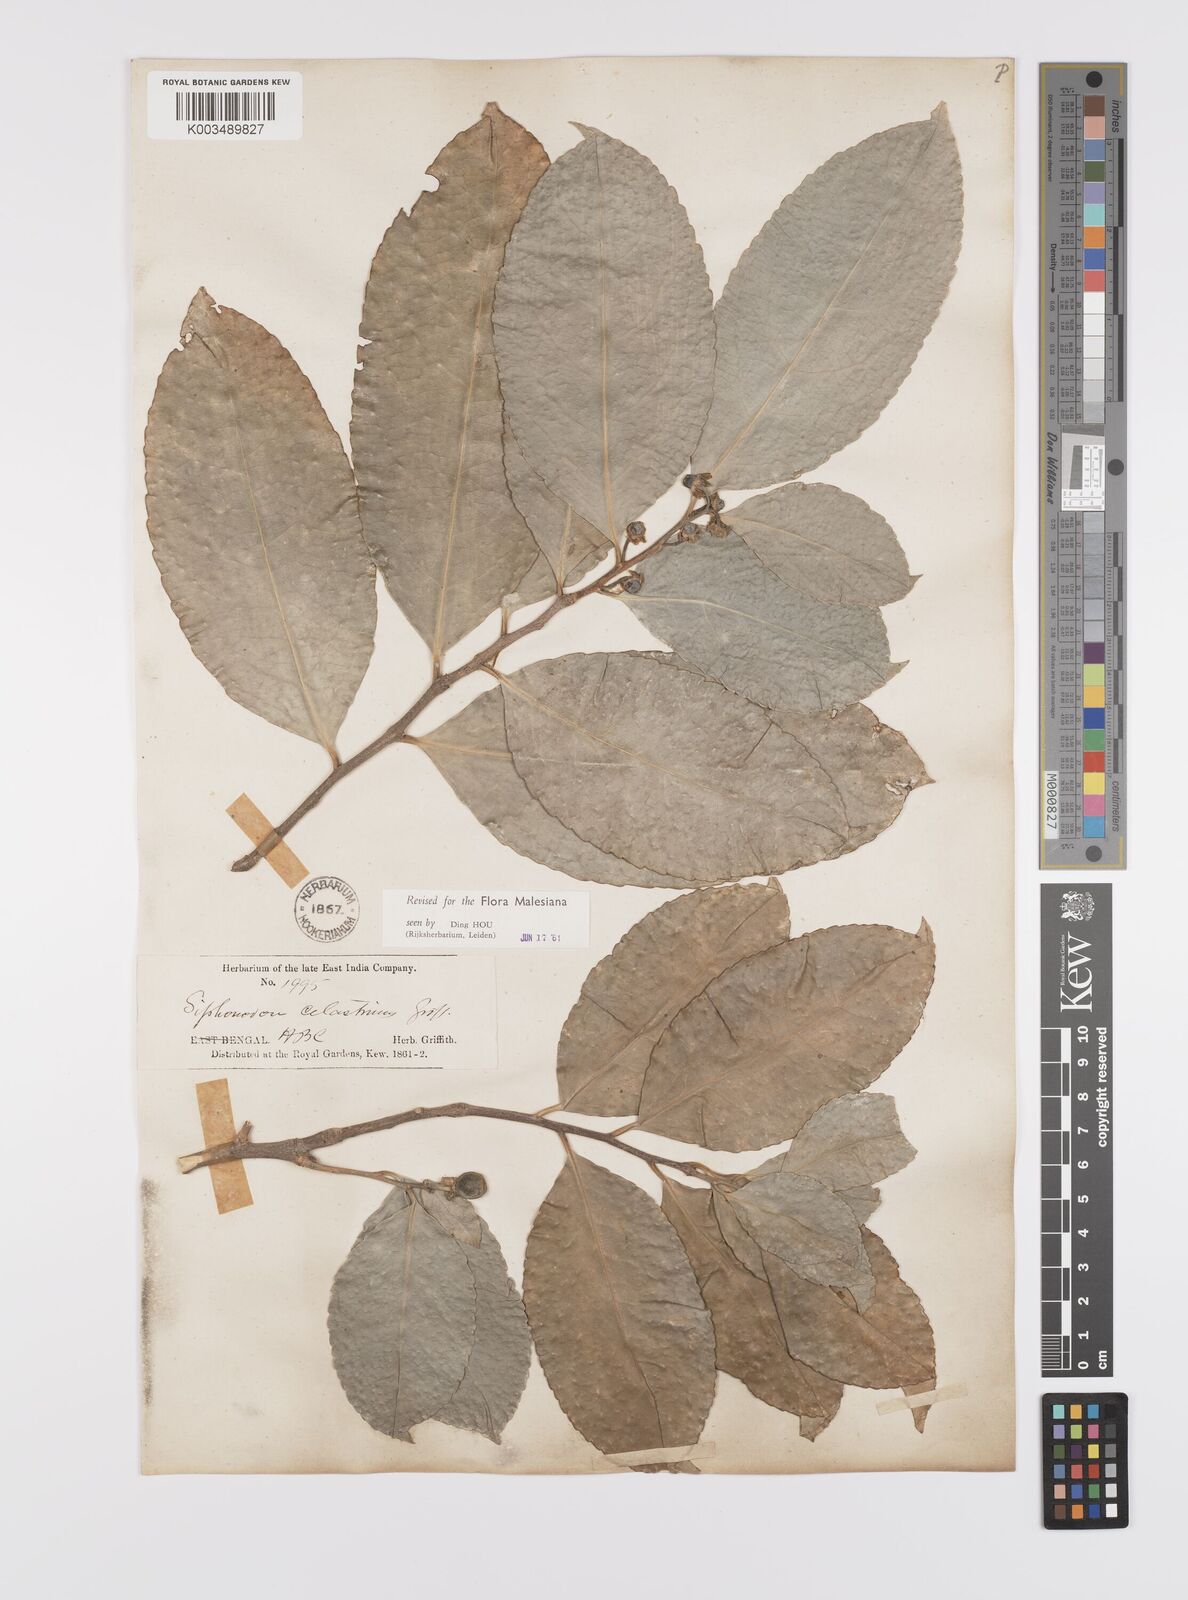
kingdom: Plantae
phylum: Tracheophyta
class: Magnoliopsida
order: Celastrales
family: Celastraceae
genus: Siphonodon
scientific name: Siphonodon celastrineus
